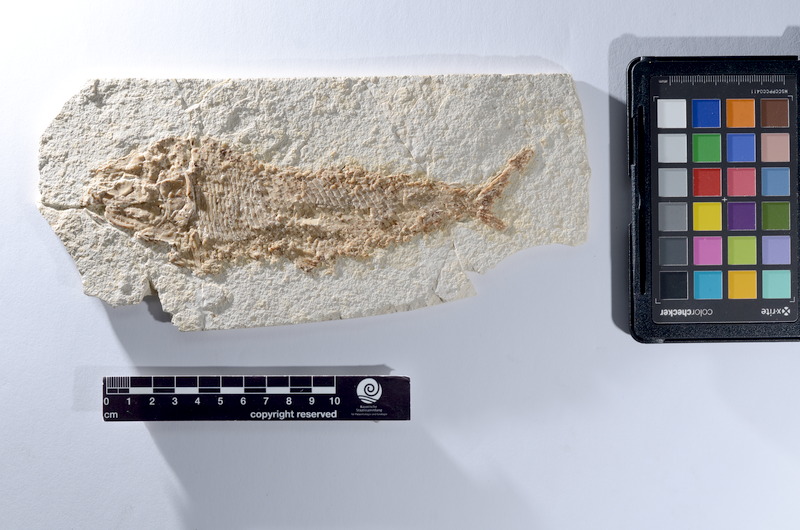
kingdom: Animalia
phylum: Chordata
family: Pholidophoridae
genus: Pholidophorus
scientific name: Pholidophorus
